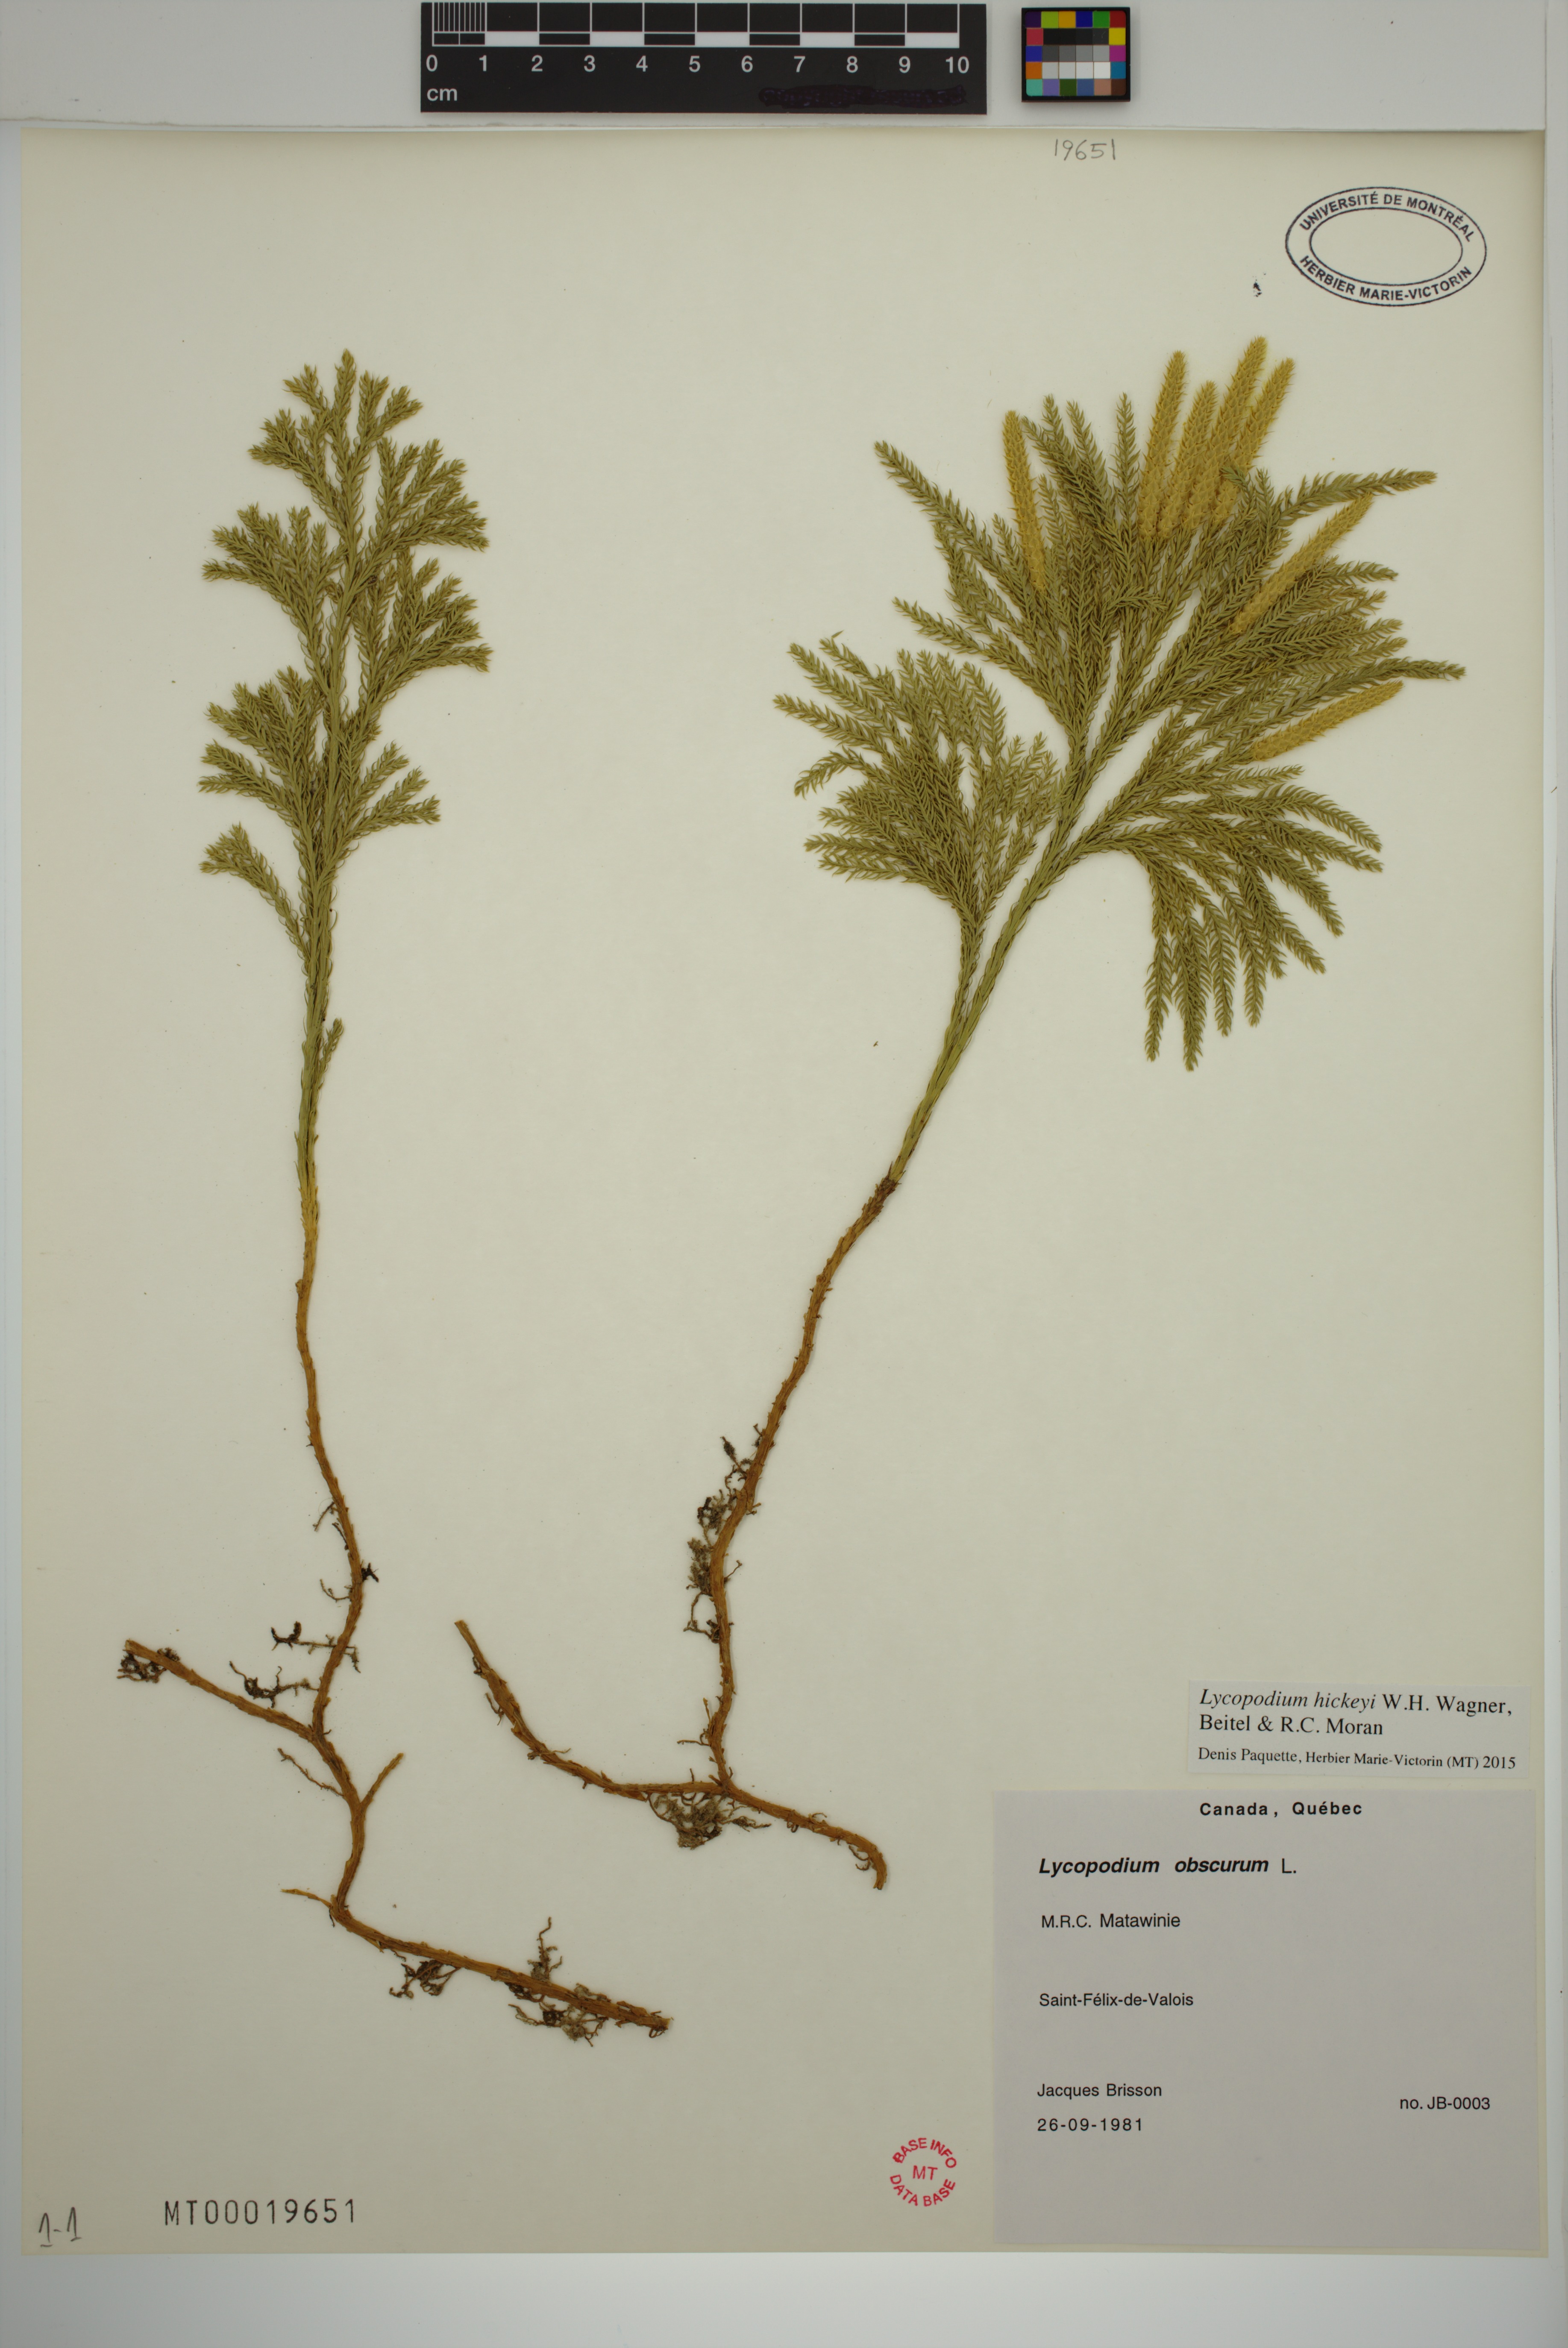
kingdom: Plantae
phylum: Tracheophyta
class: Lycopodiopsida
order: Lycopodiales
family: Lycopodiaceae
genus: Dendrolycopodium
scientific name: Dendrolycopodium hickeyi
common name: Hickey's clubmoss
